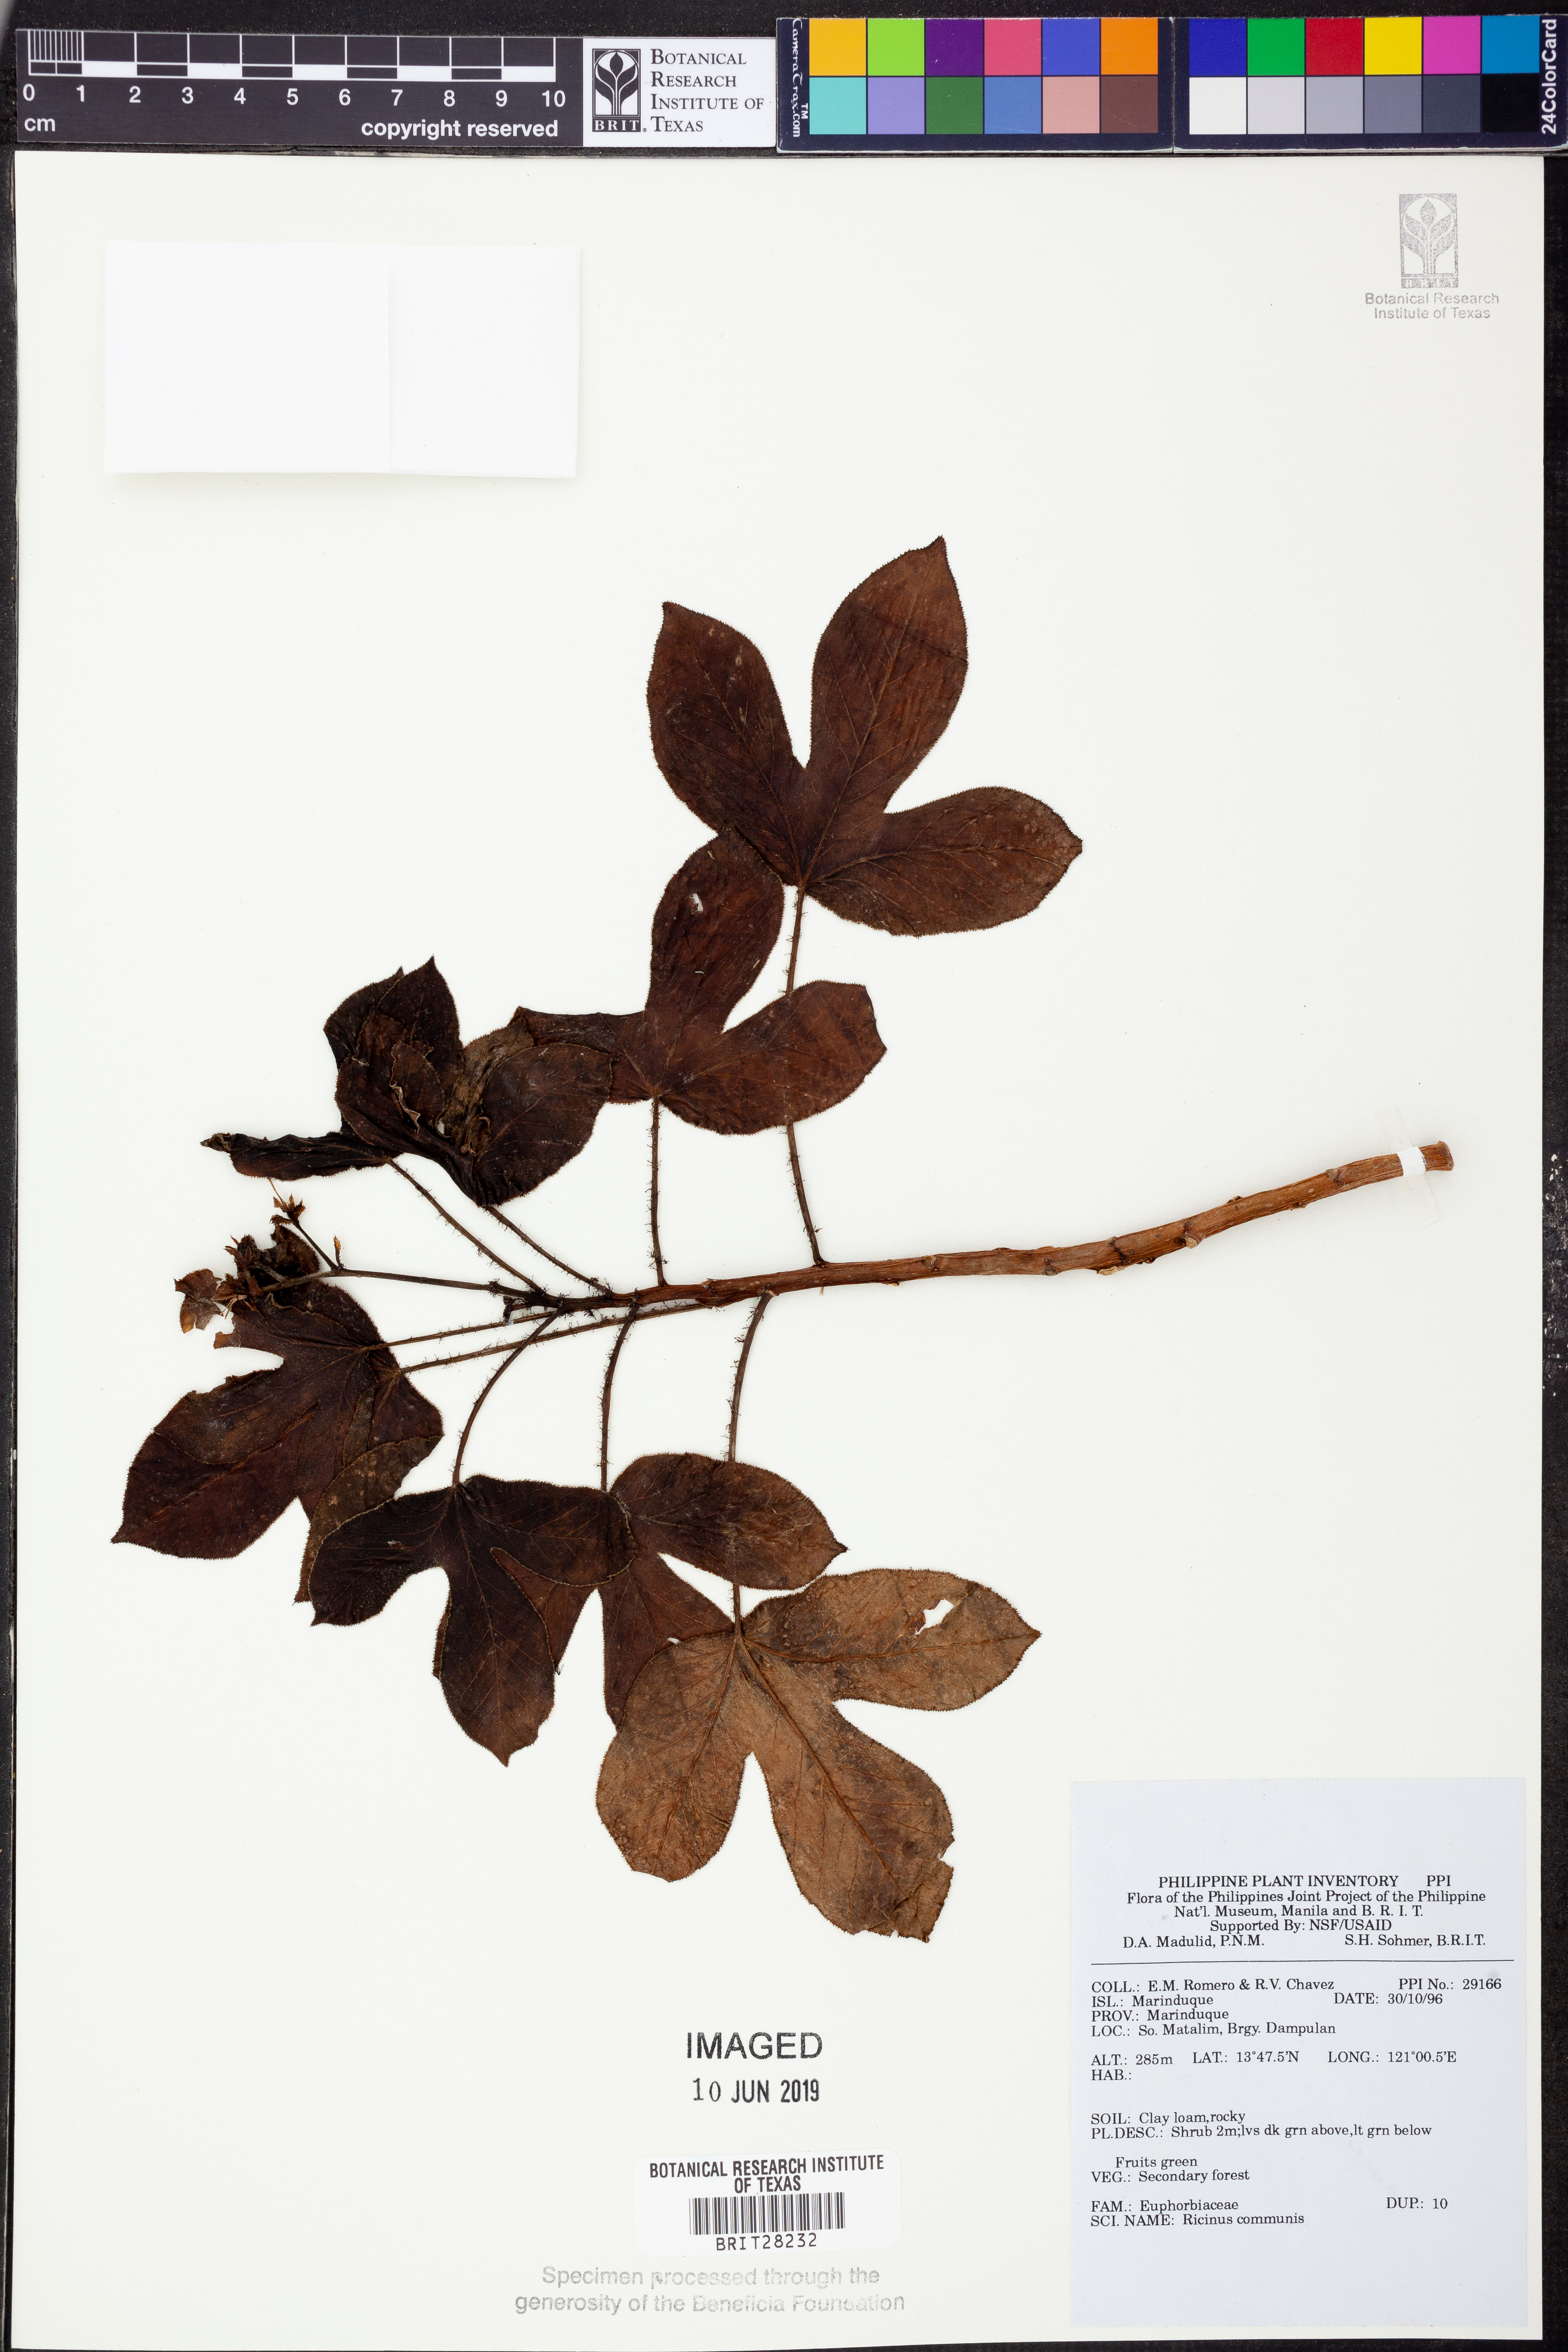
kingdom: Plantae
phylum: Tracheophyta
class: Magnoliopsida
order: Malpighiales
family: Euphorbiaceae
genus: Ricinus
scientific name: Ricinus communis
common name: Castor-oil-plant
